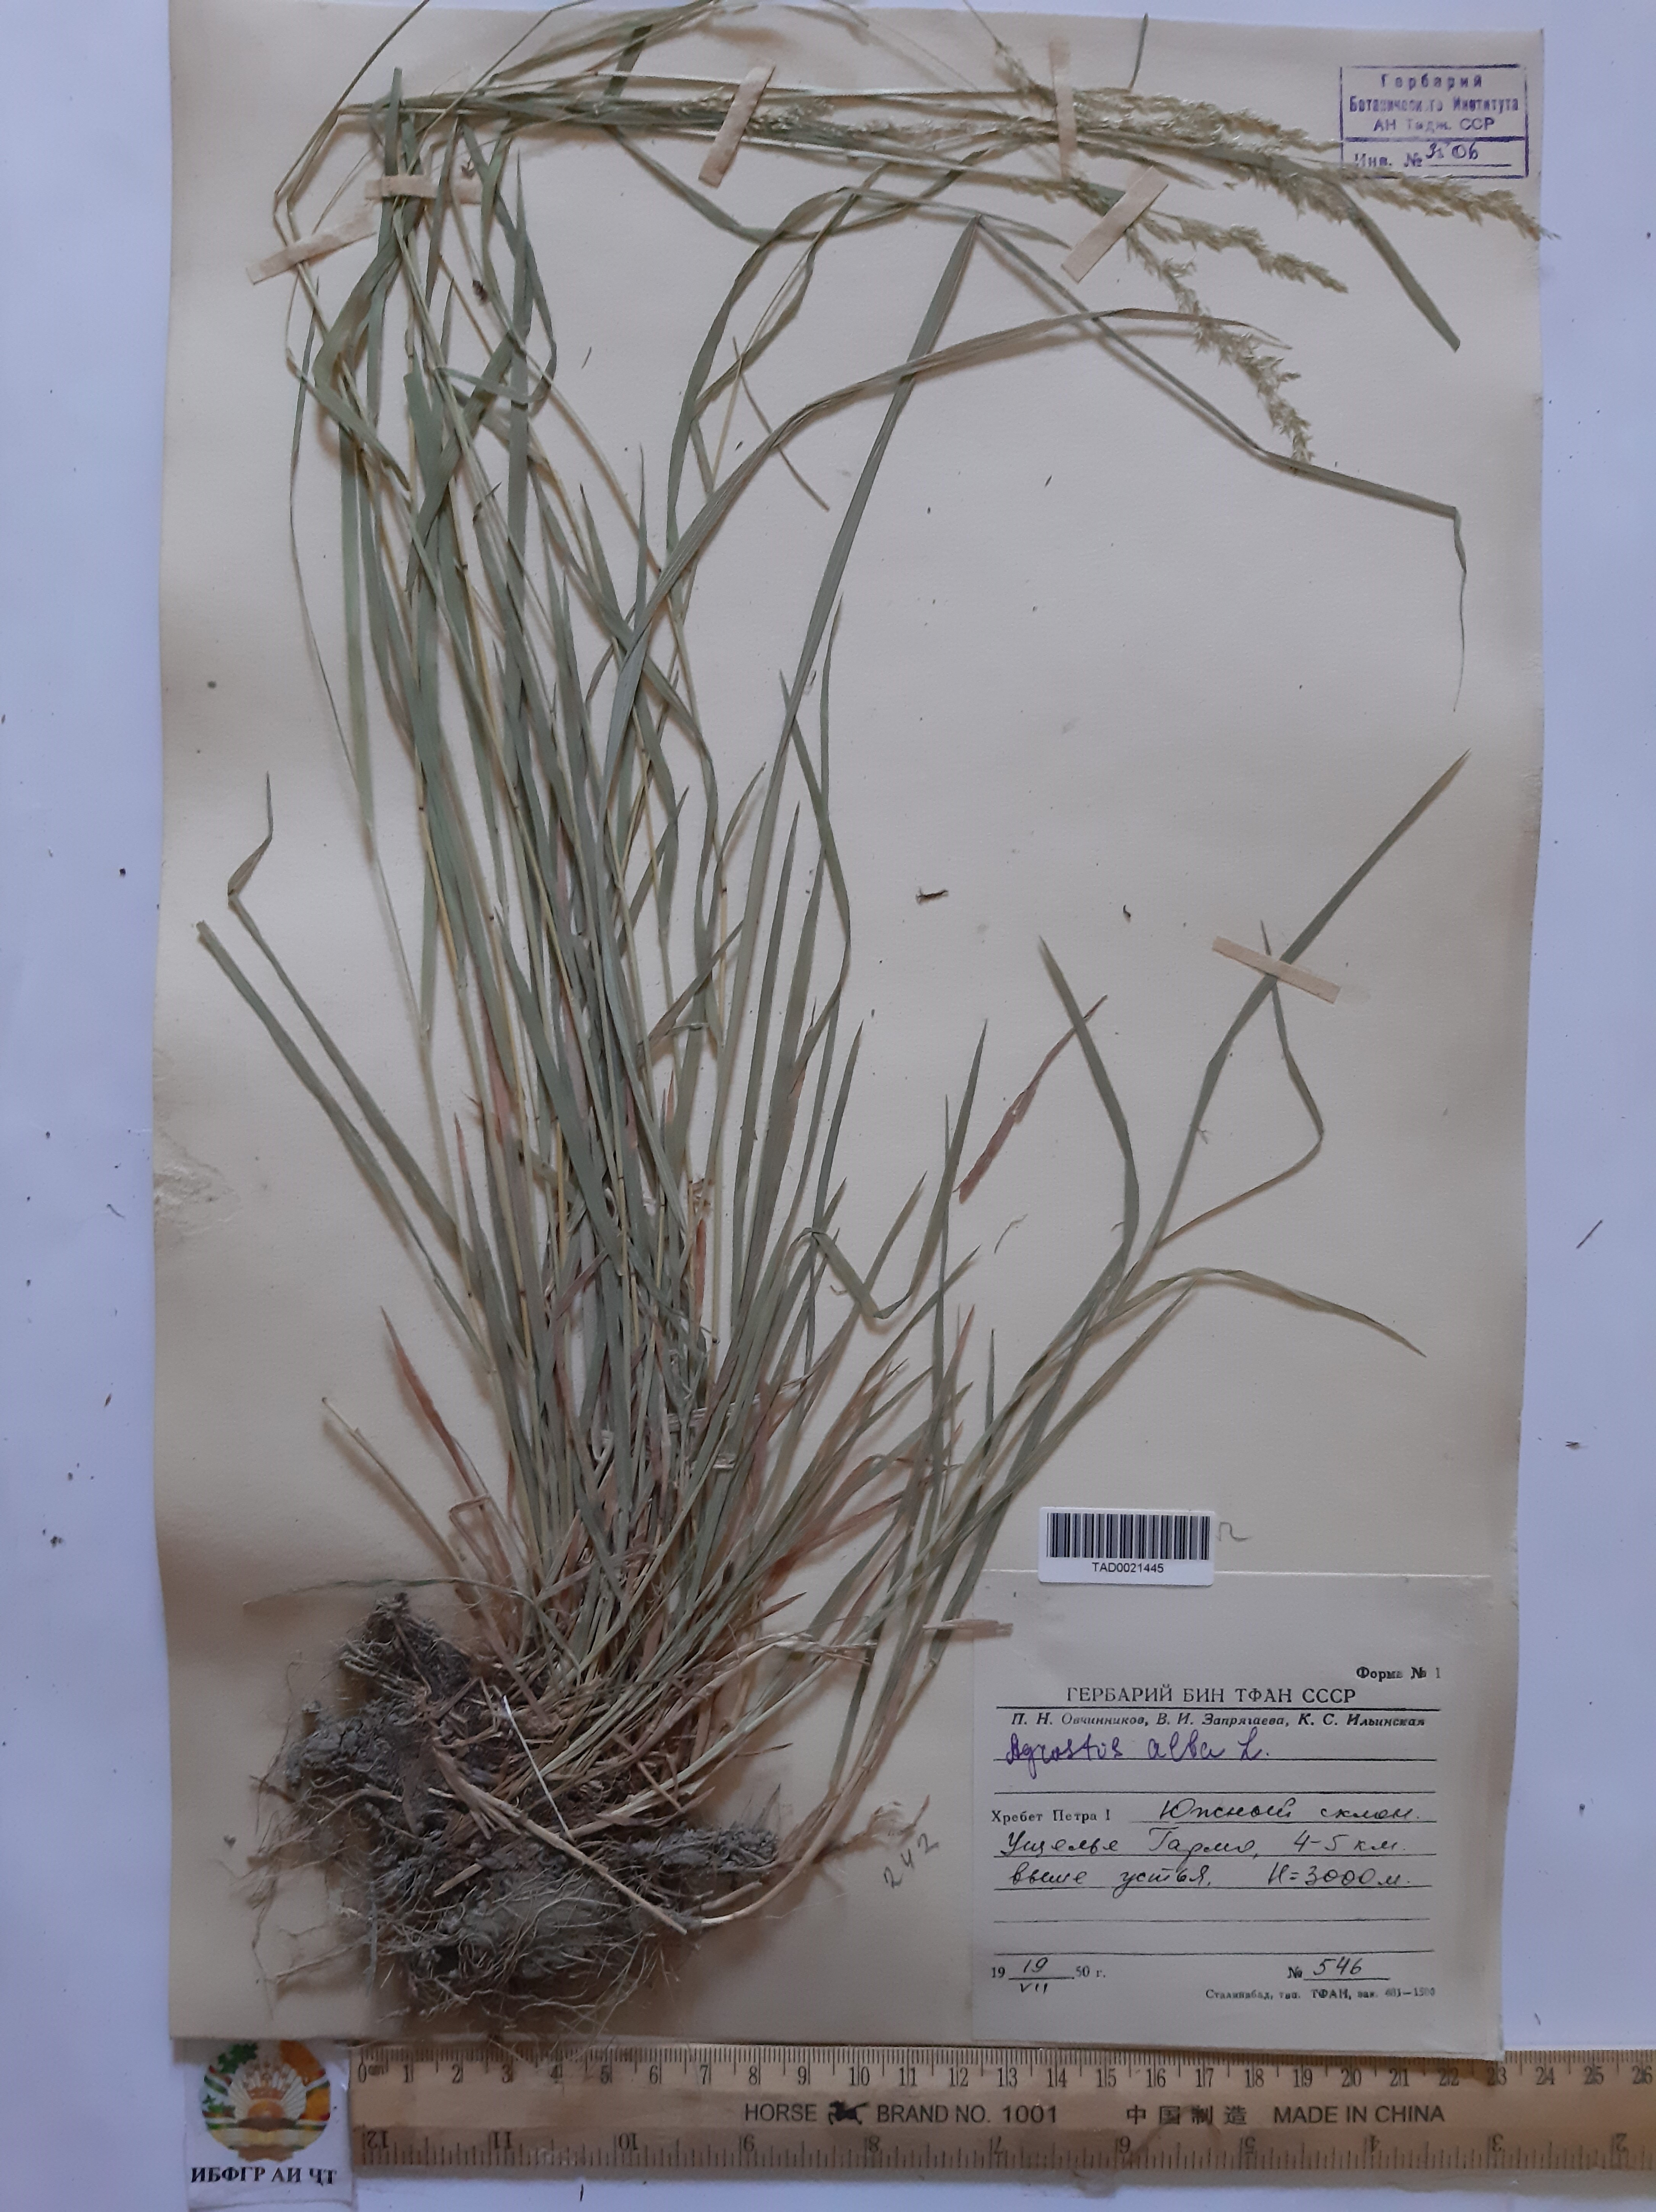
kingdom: Plantae
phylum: Tracheophyta
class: Liliopsida
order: Poales
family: Poaceae
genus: Poa
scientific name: Poa nemoralis
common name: Wood bluegrass
